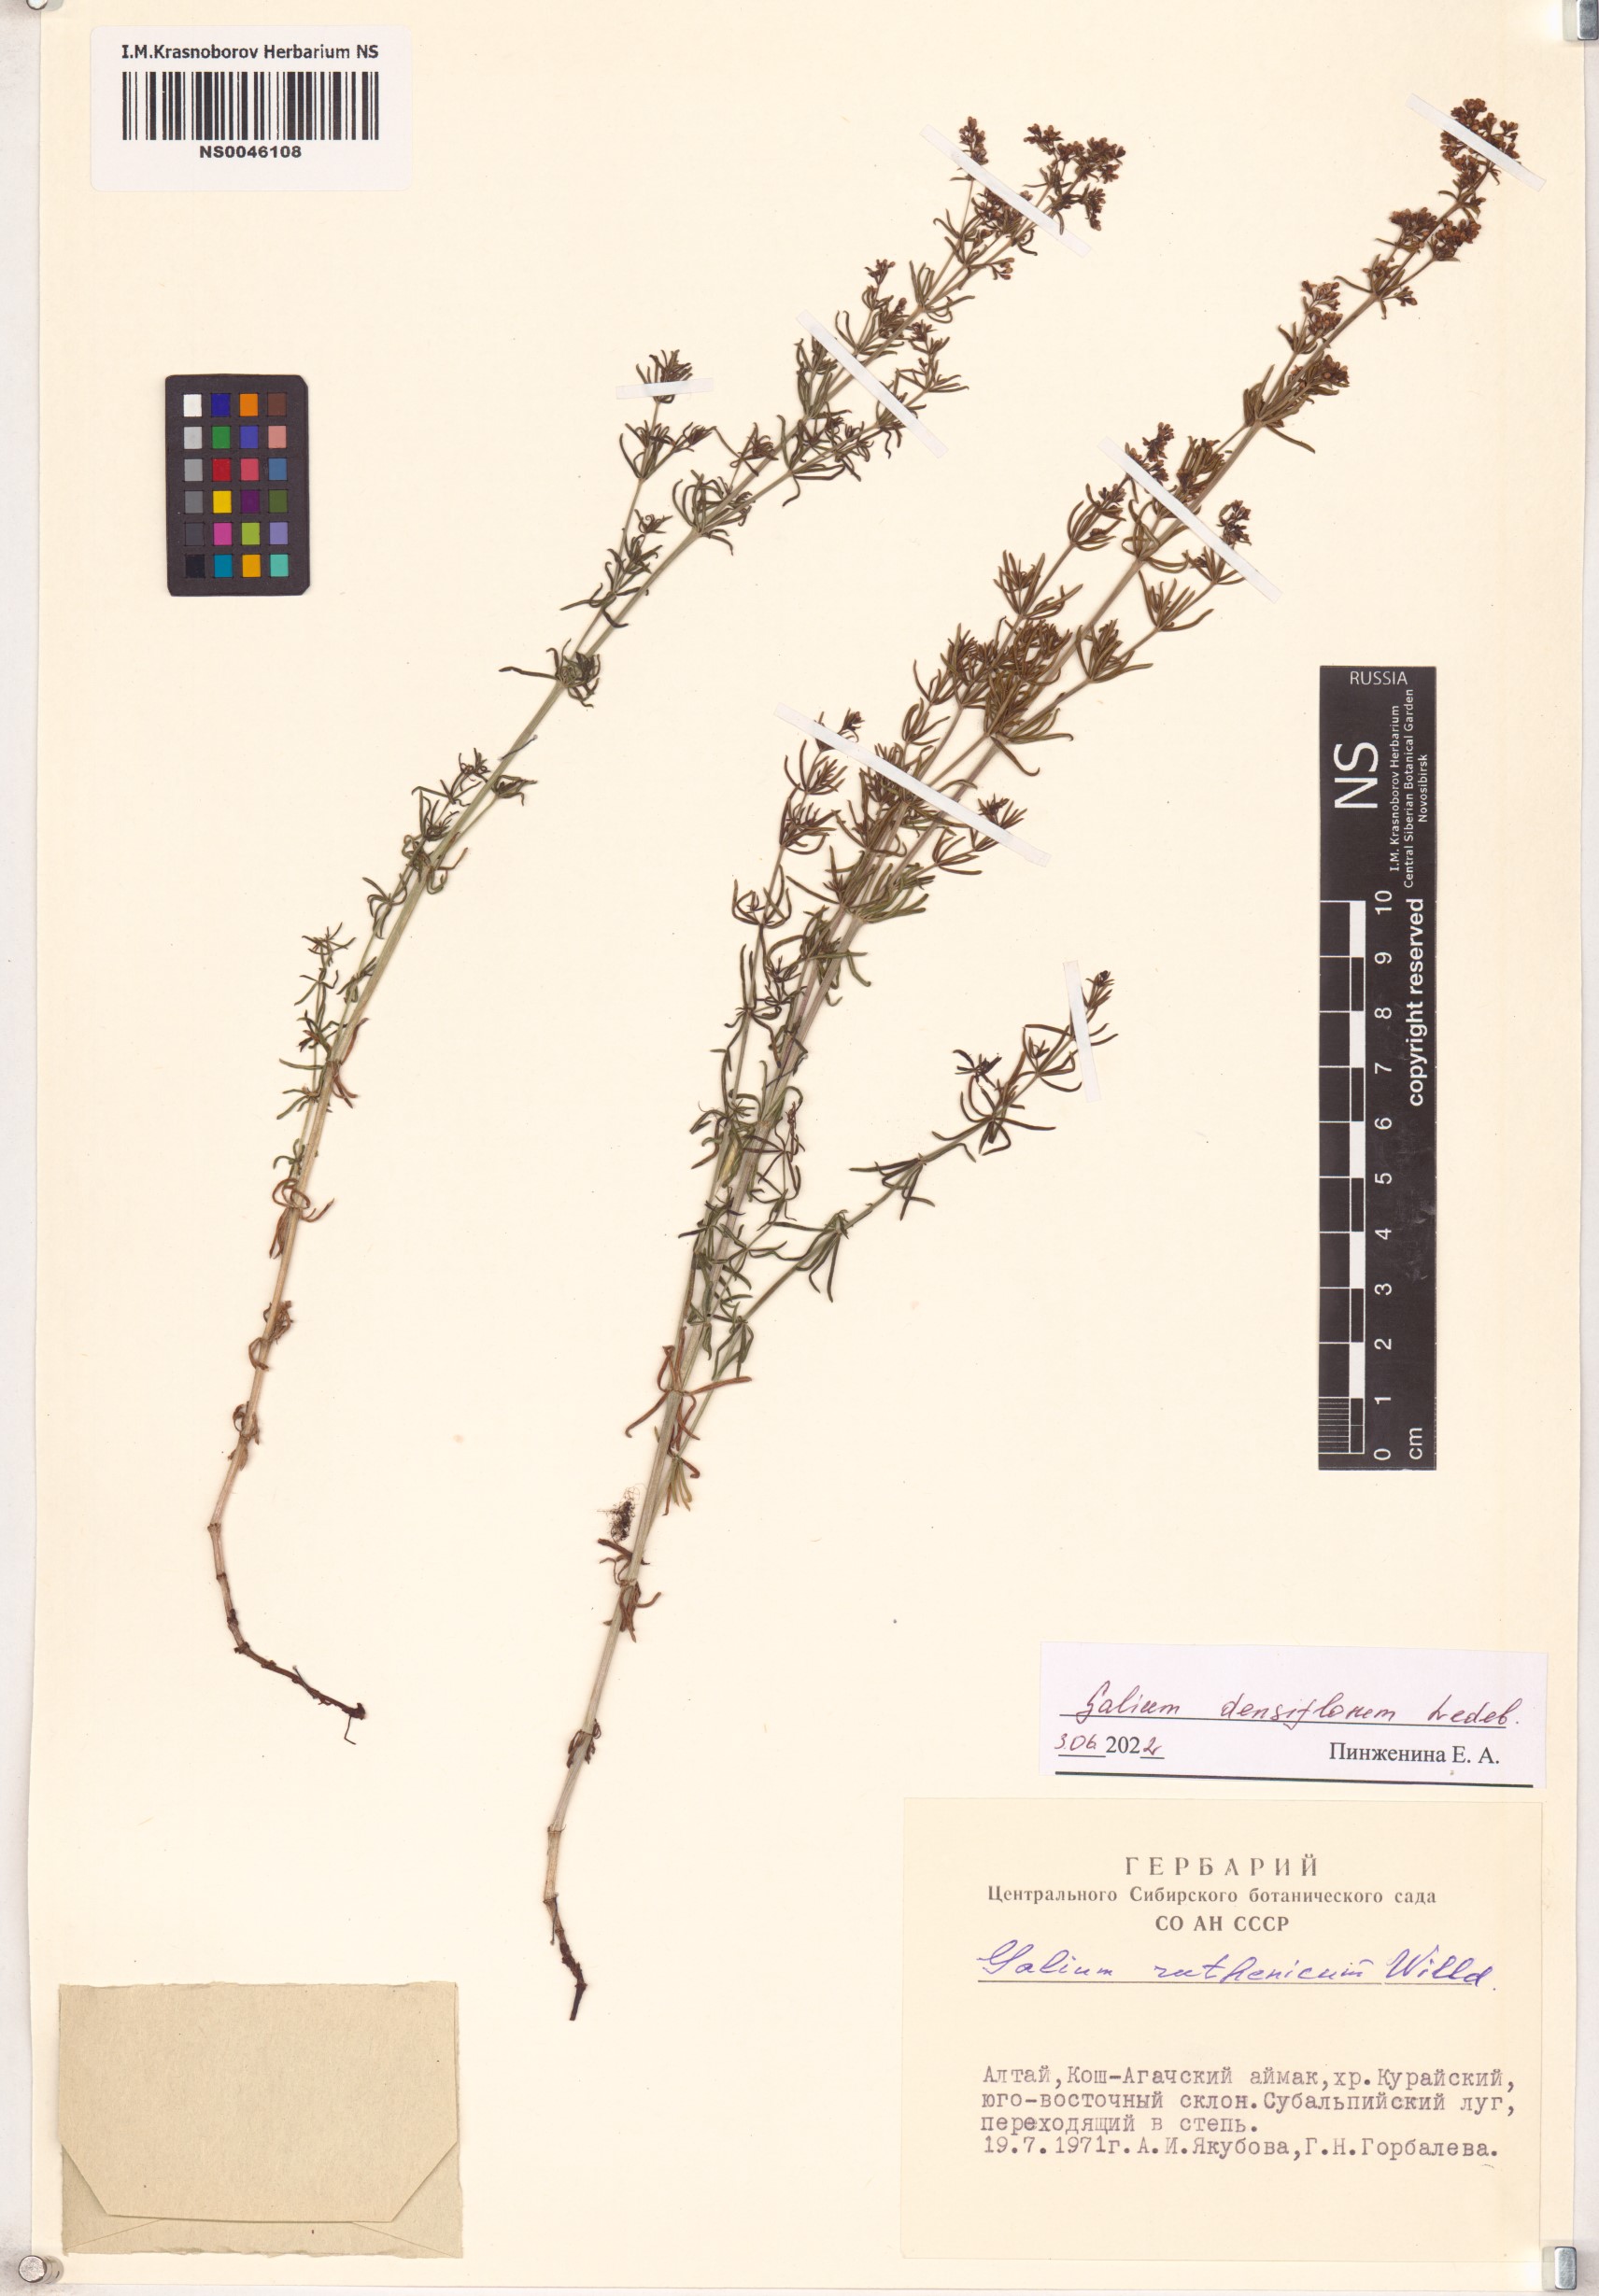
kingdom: Plantae
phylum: Tracheophyta
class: Magnoliopsida
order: Gentianales
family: Rubiaceae
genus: Galium
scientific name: Galium densiflorum
